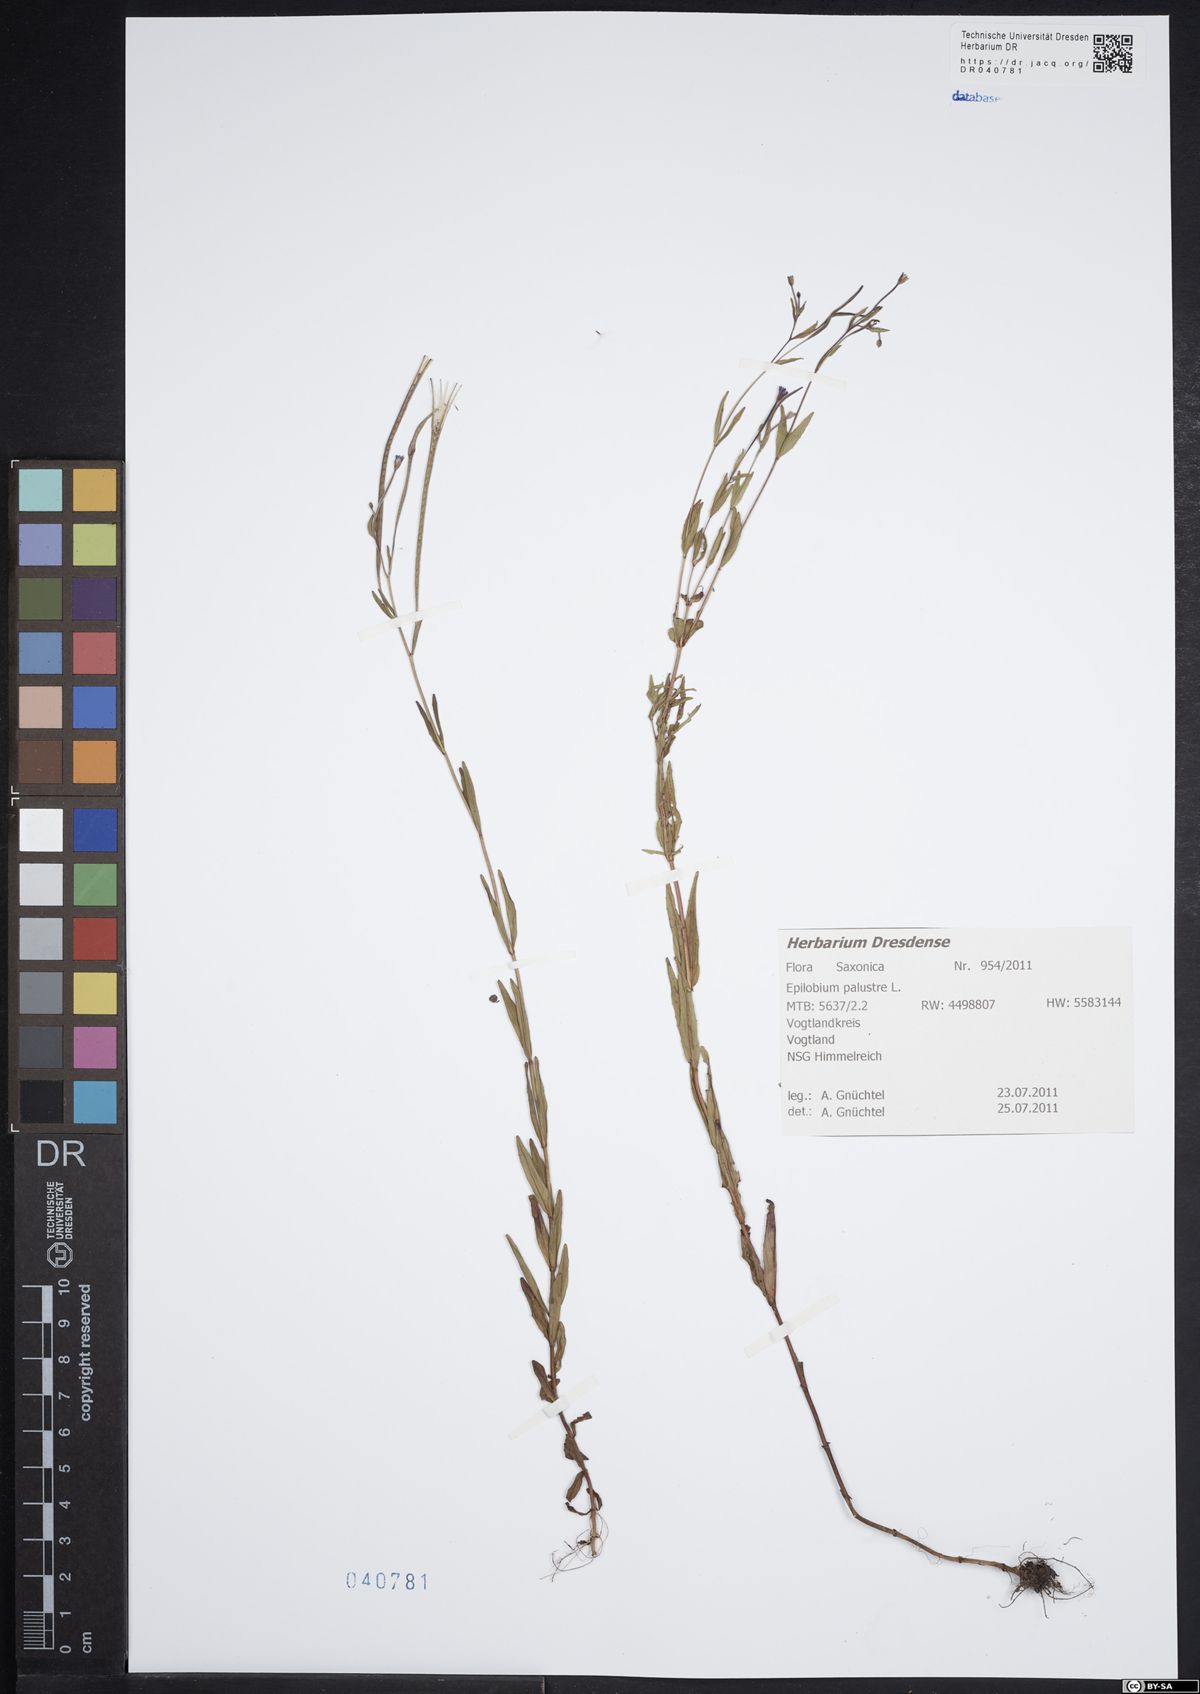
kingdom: Plantae
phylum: Tracheophyta
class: Magnoliopsida
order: Myrtales
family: Onagraceae
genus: Epilobium
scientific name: Epilobium palustre
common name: Marsh willowherb
